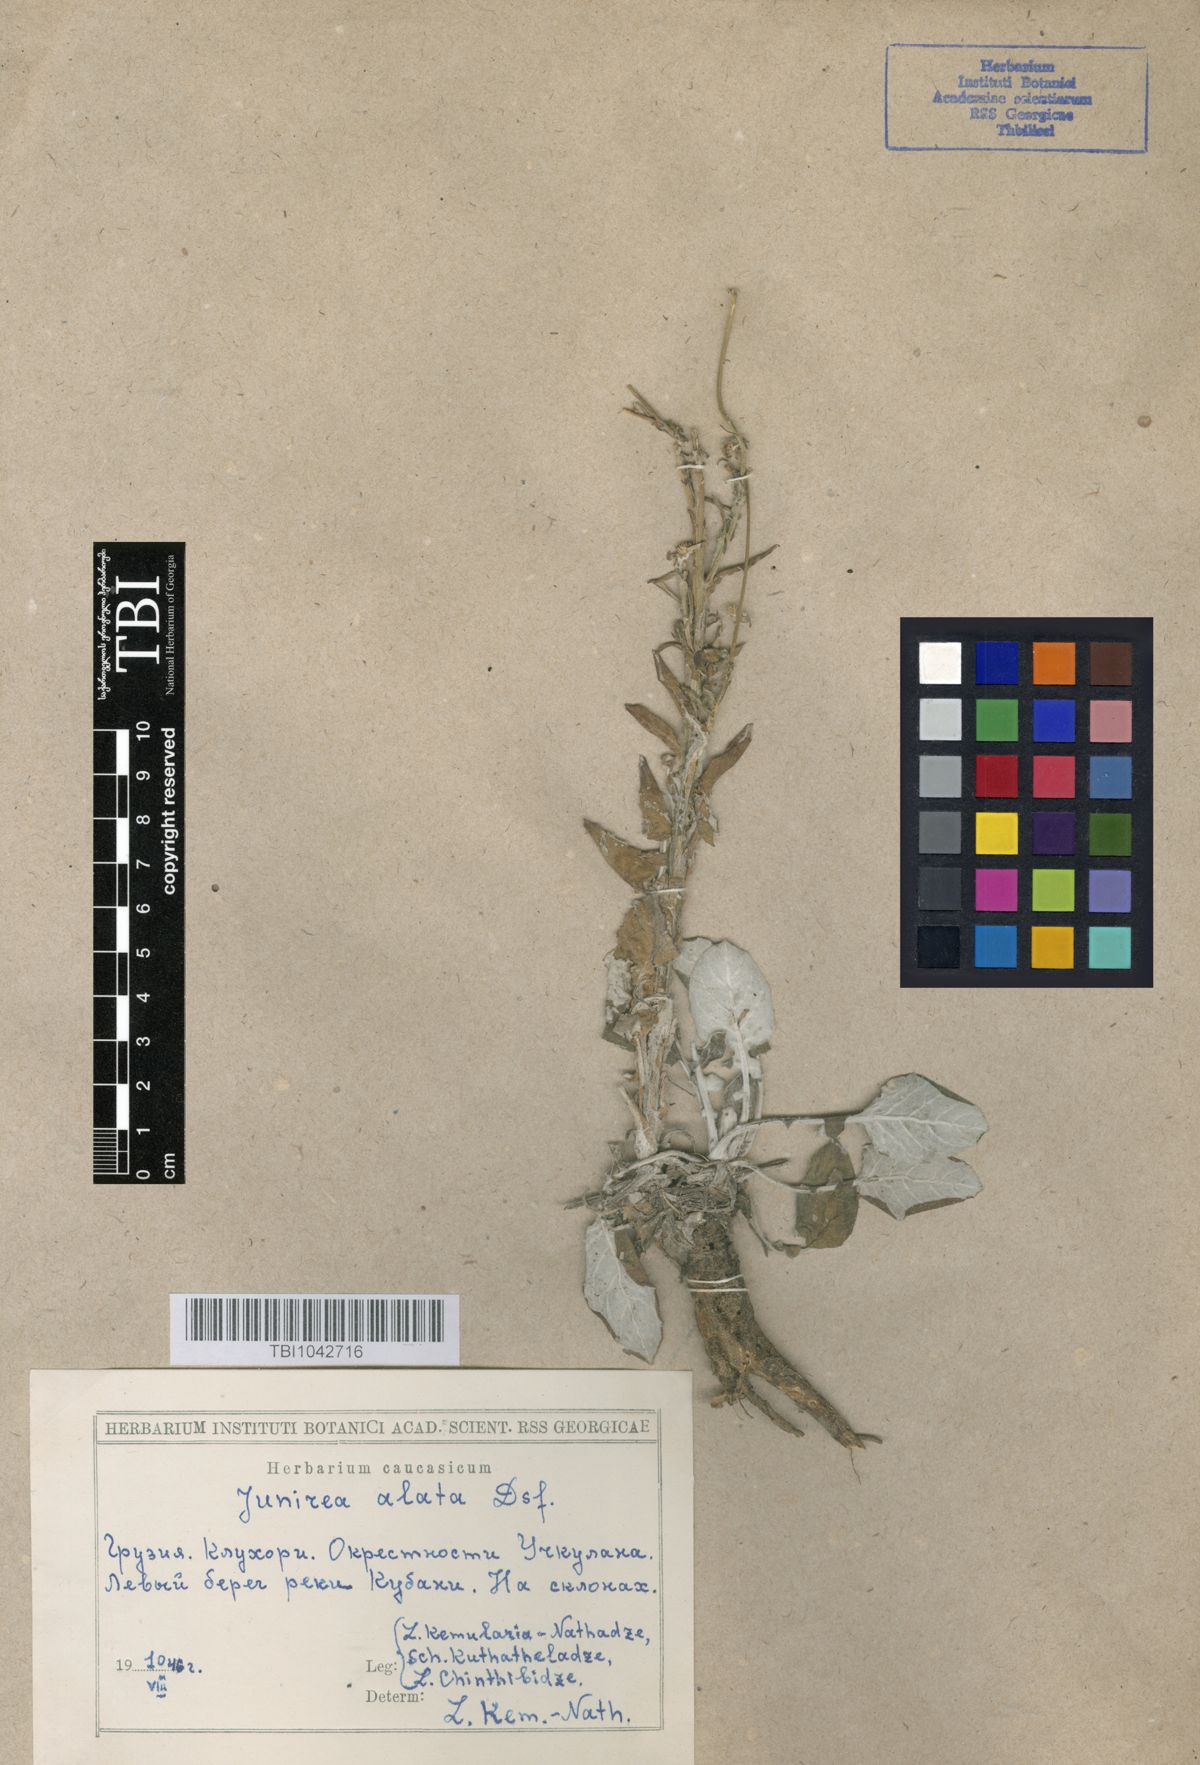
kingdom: Plantae
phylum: Tracheophyta
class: Magnoliopsida
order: Asterales
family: Asteraceae
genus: Jurinea
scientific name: Jurinea alata
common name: Winged jurinea
